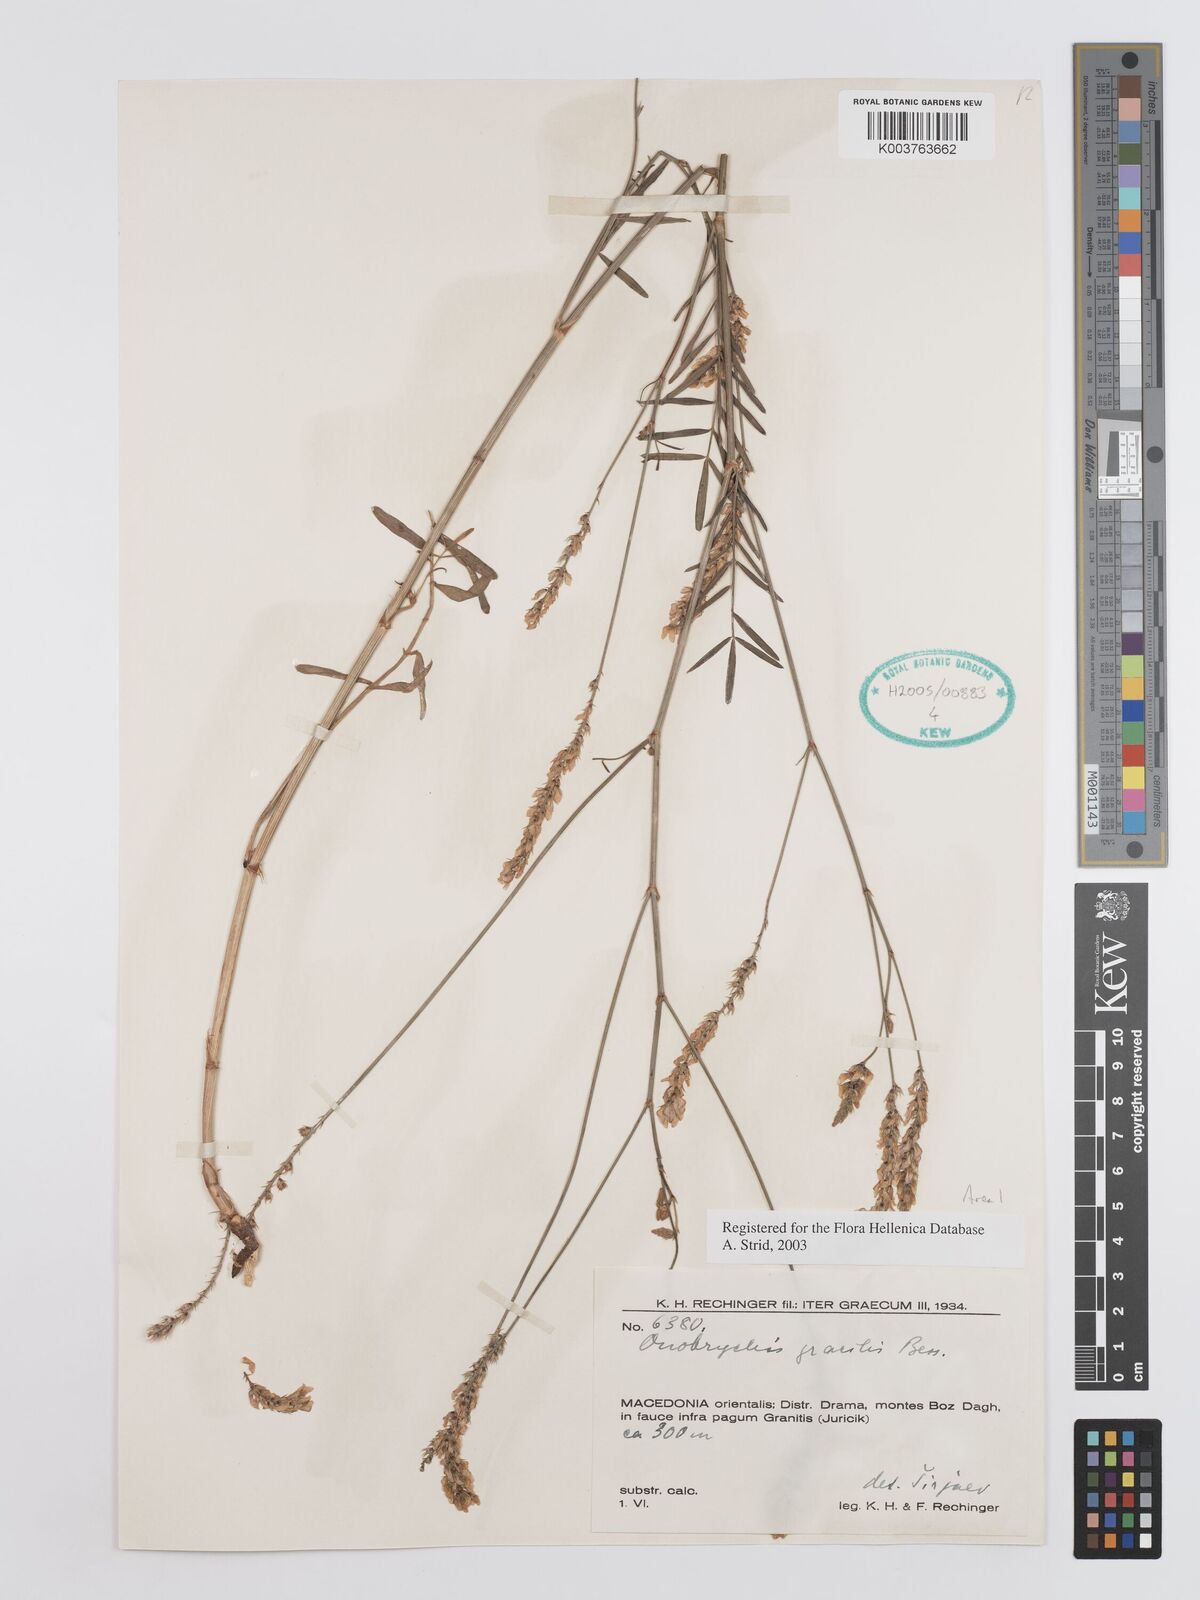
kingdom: Plantae
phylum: Tracheophyta
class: Magnoliopsida
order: Fabales
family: Fabaceae
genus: Onobrychis
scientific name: Onobrychis gracilis
